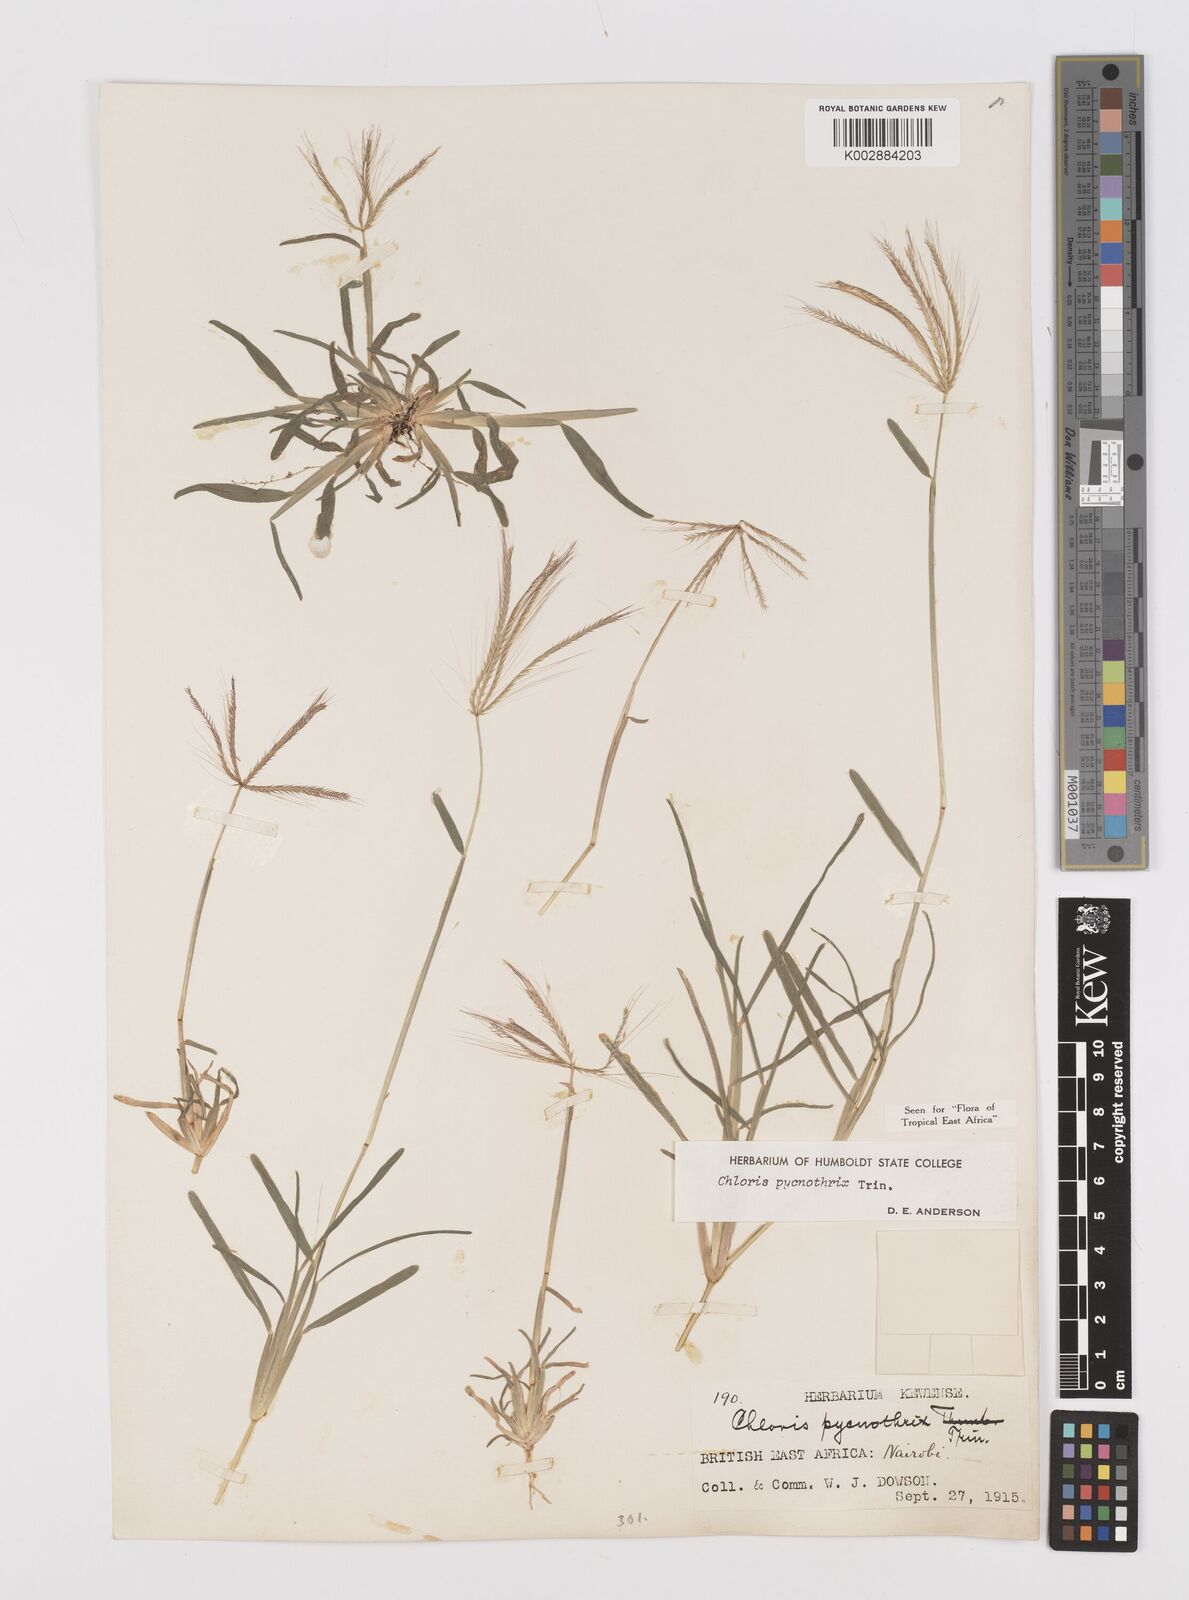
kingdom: Plantae
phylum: Tracheophyta
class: Liliopsida
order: Poales
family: Poaceae
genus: Chloris
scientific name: Chloris pycnothrix
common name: Spiderweb chloris
